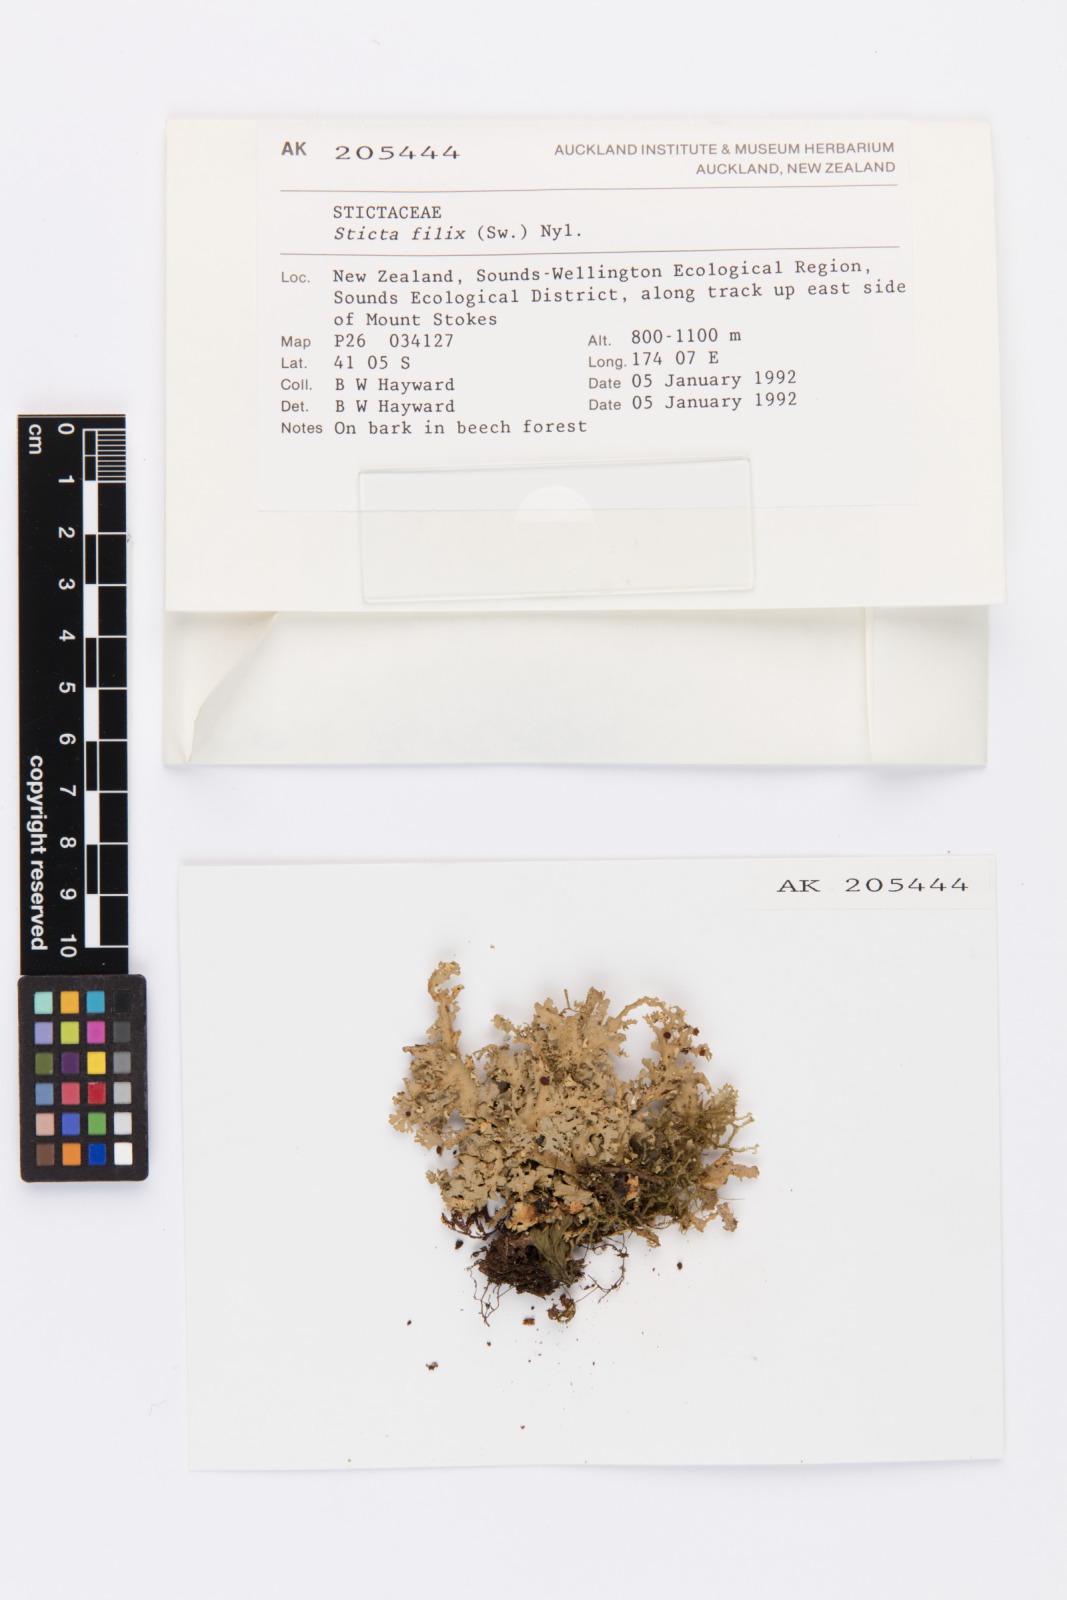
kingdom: Fungi
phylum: Ascomycota
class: Lecanoromycetes
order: Peltigerales
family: Lobariaceae
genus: Sticta
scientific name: Sticta filix
